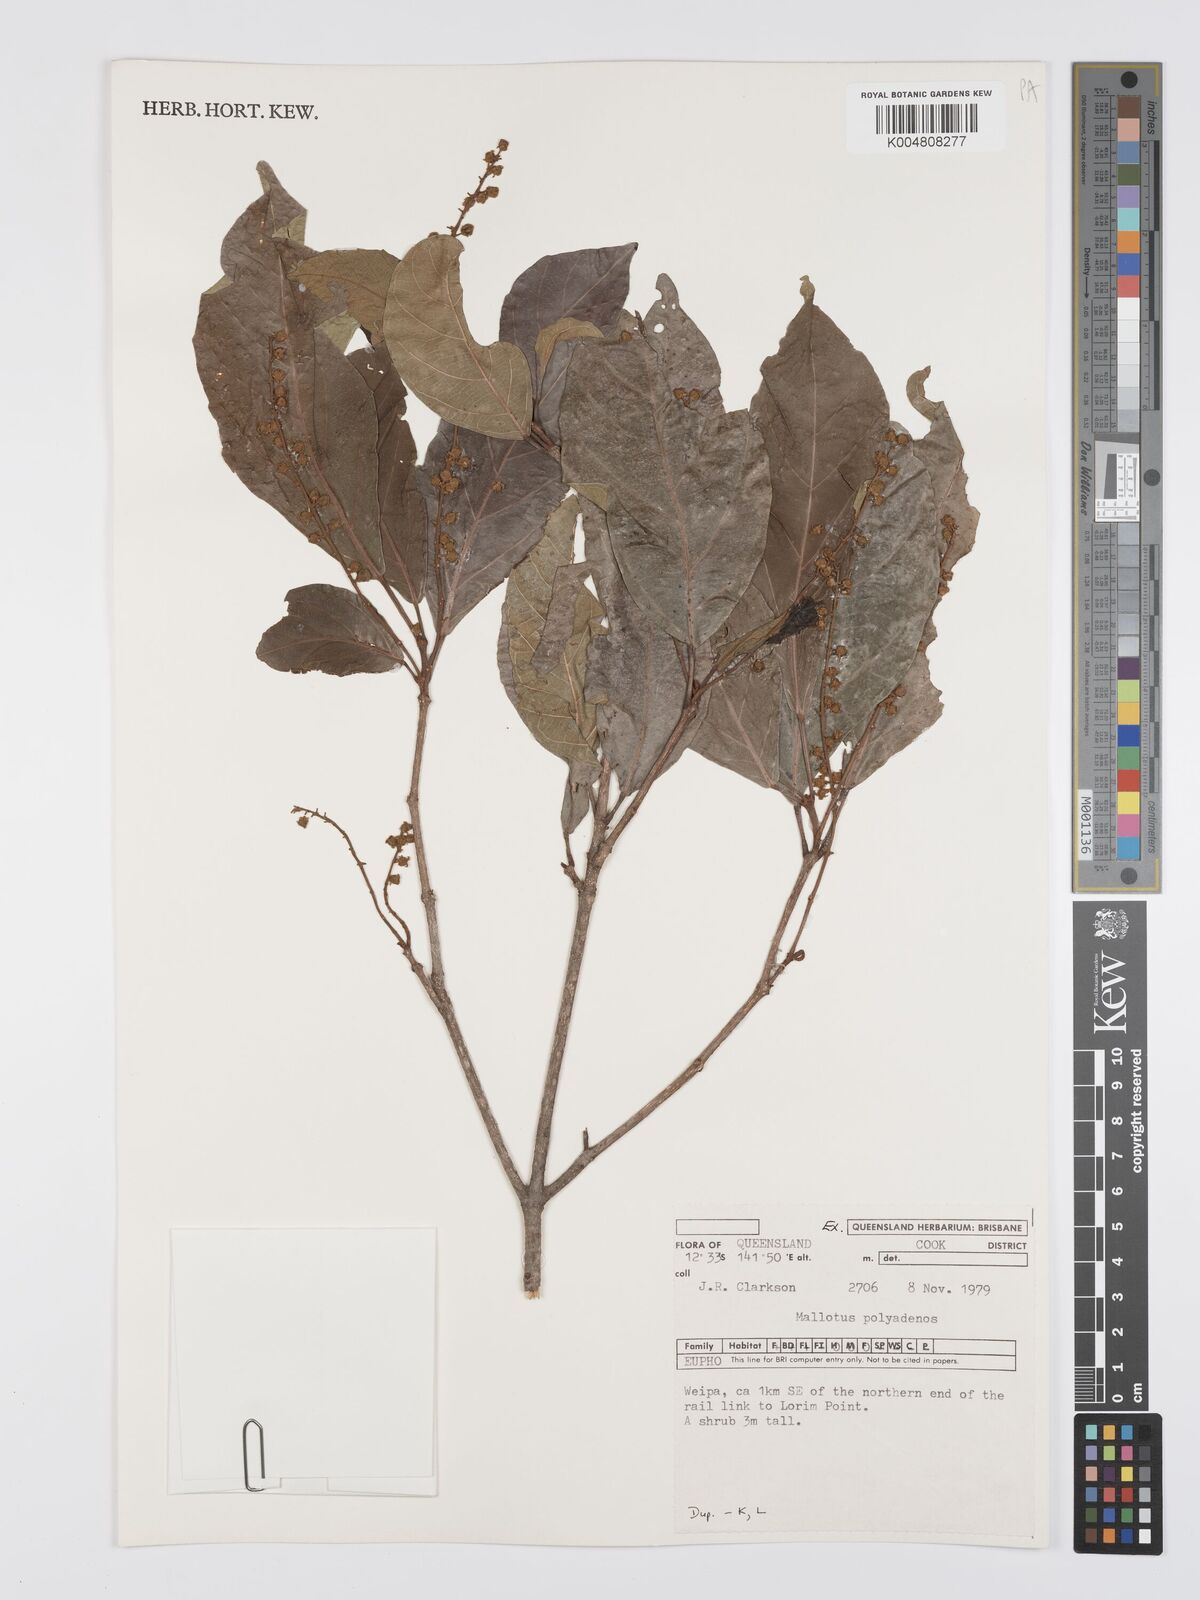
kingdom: Plantae
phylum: Tracheophyta
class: Magnoliopsida
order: Malpighiales
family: Euphorbiaceae
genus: Mallotus
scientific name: Mallotus polyadenos
